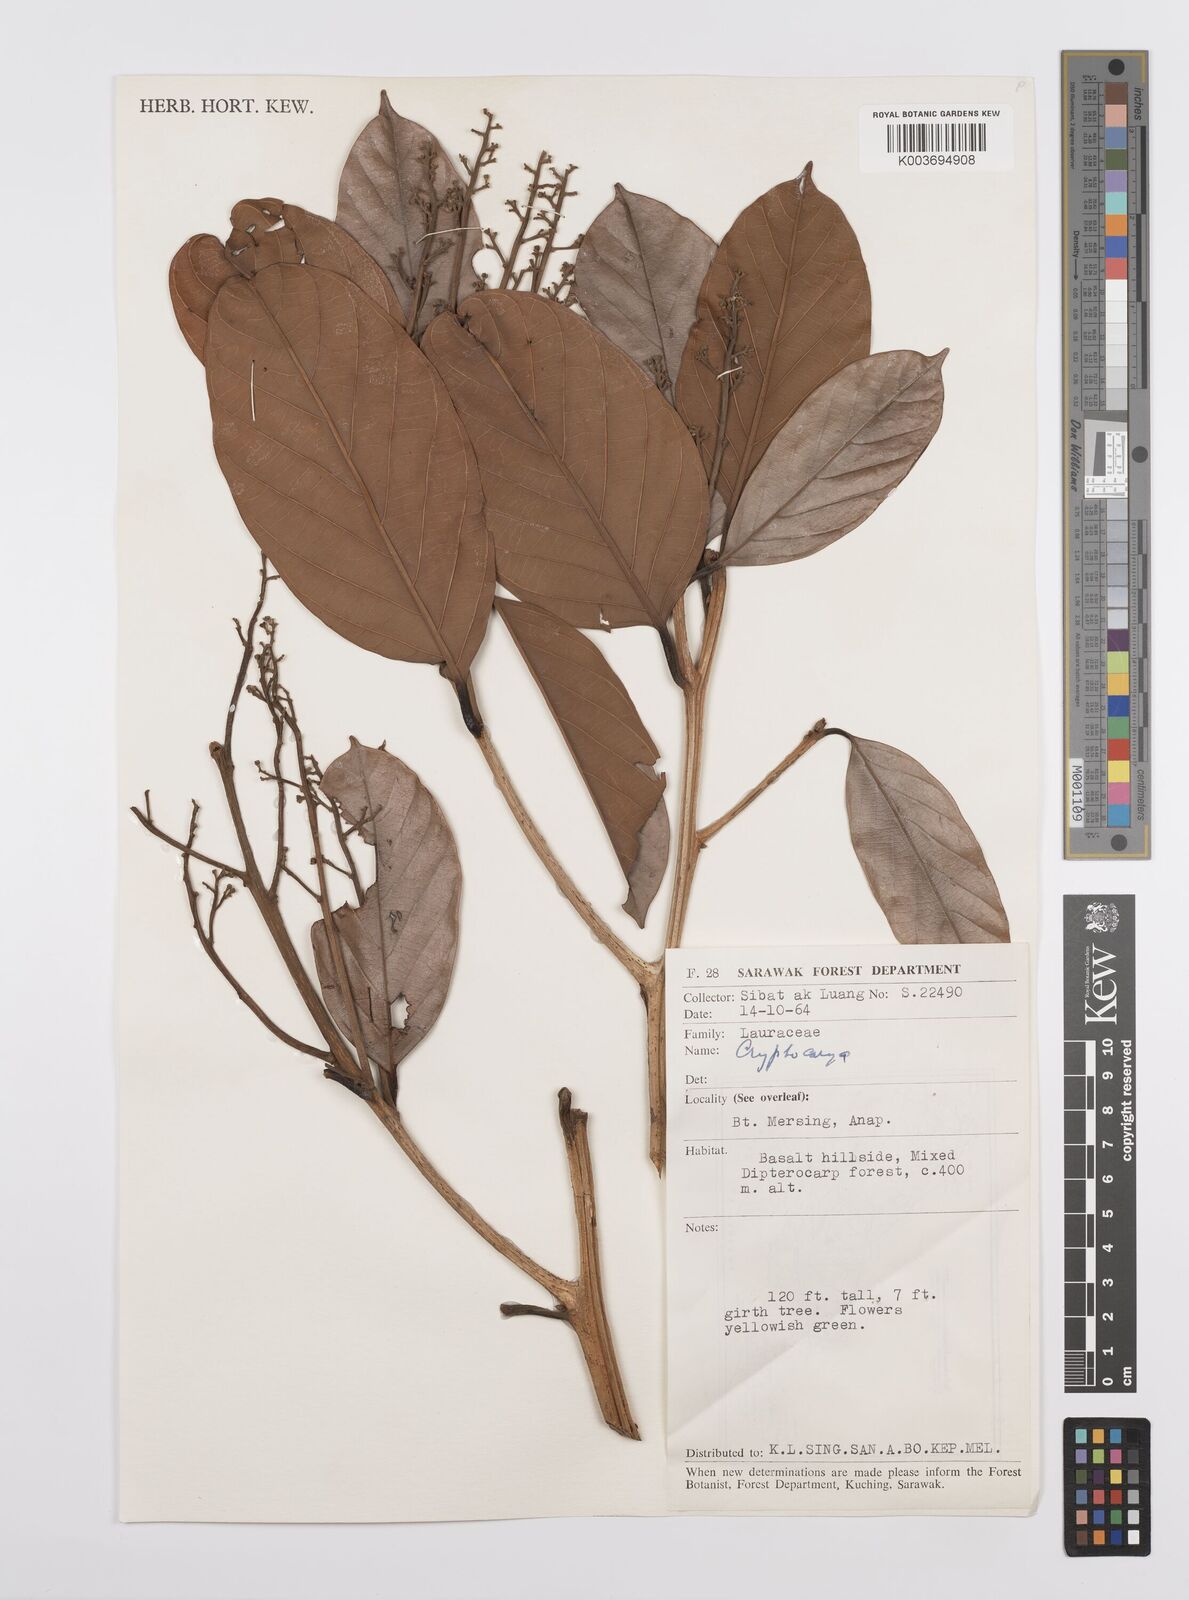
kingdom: Plantae
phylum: Tracheophyta
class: Magnoliopsida
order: Laurales
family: Lauraceae
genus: Cryptocarya
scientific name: Cryptocarya
